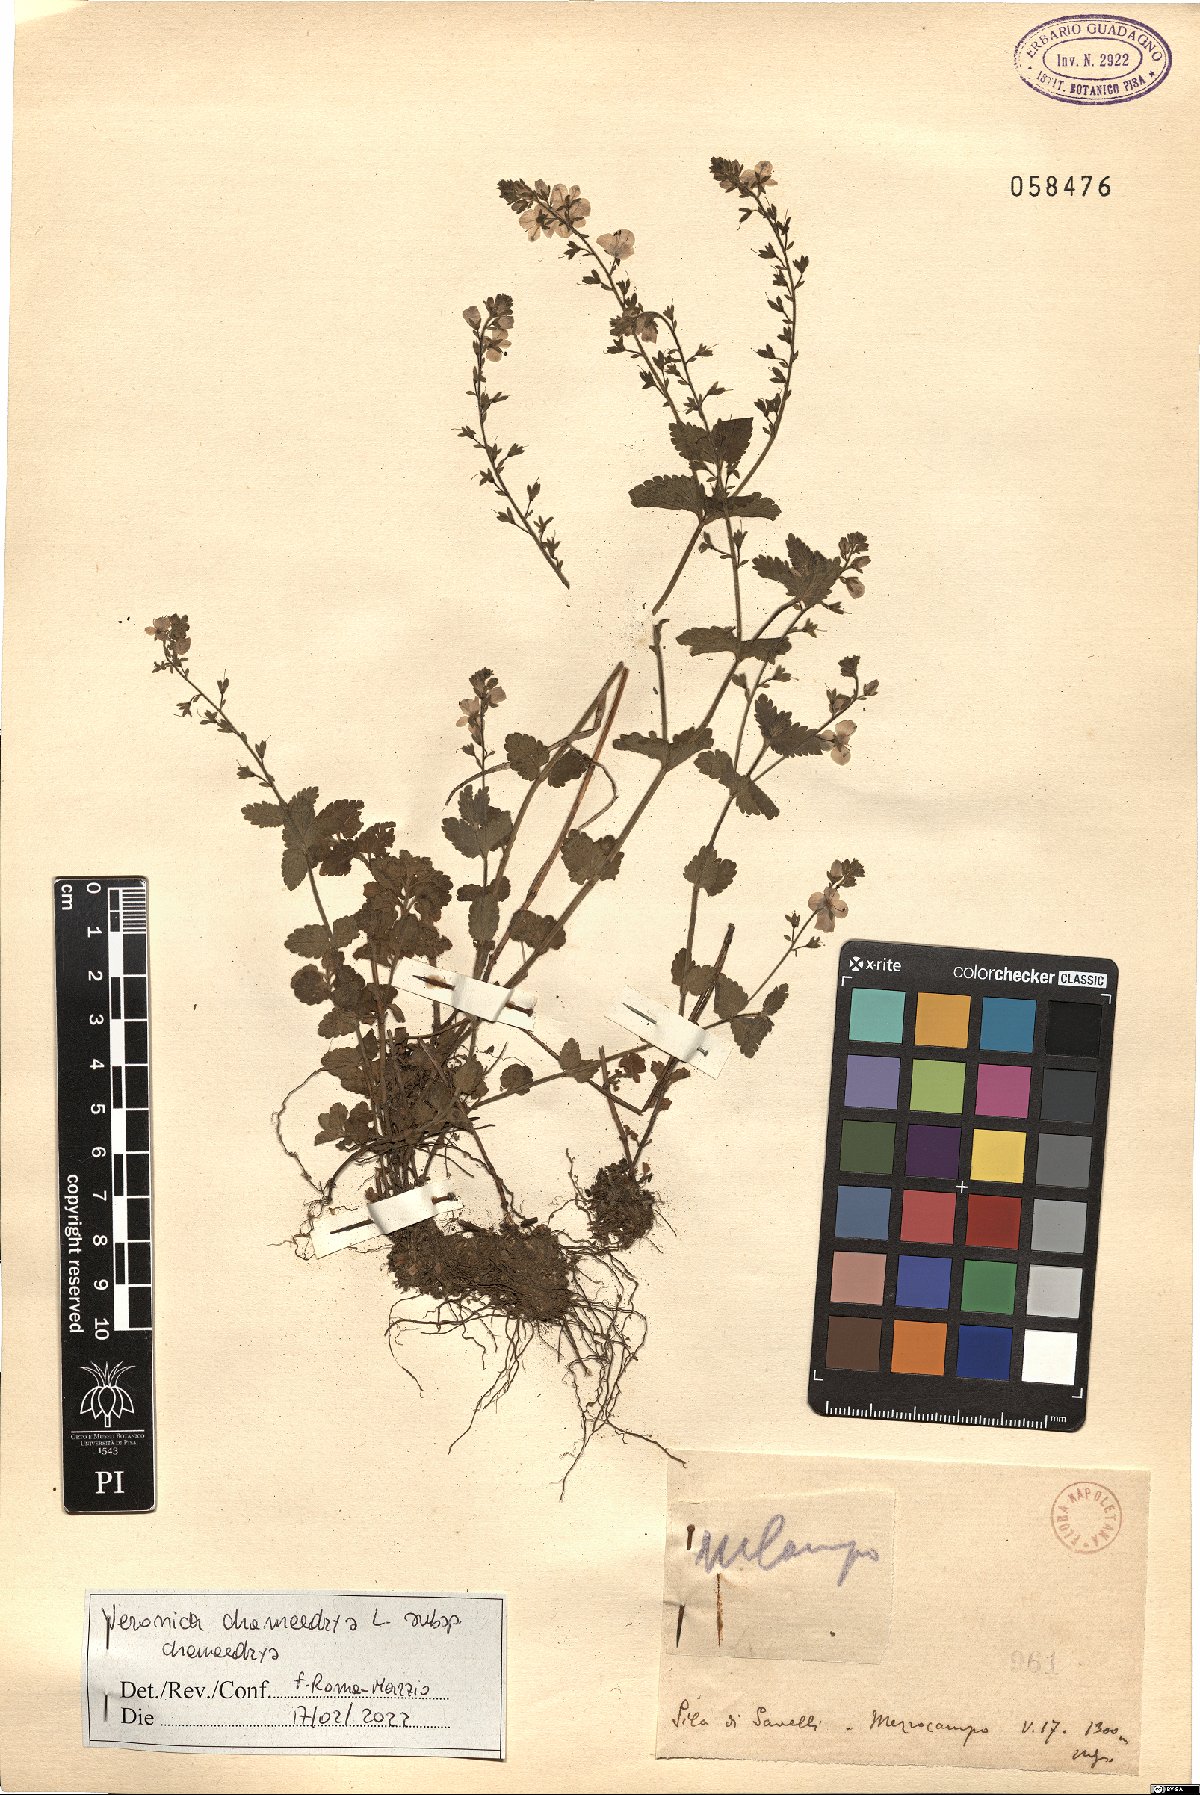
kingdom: Plantae
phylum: Tracheophyta
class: Magnoliopsida
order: Lamiales
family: Plantaginaceae
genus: Veronica
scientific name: Veronica chamaedrys
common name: Germander speedwell
